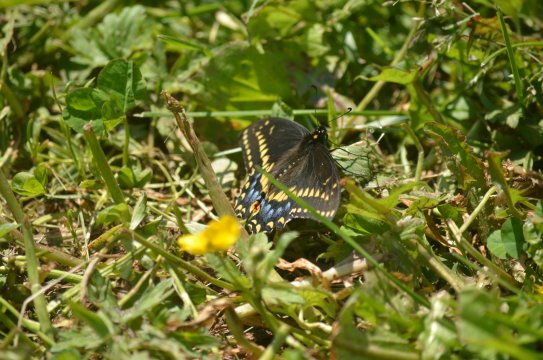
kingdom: Animalia
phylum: Arthropoda
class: Insecta
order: Lepidoptera
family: Papilionidae
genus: Papilio
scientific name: Papilio polyxenes
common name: Black Swallowtail
